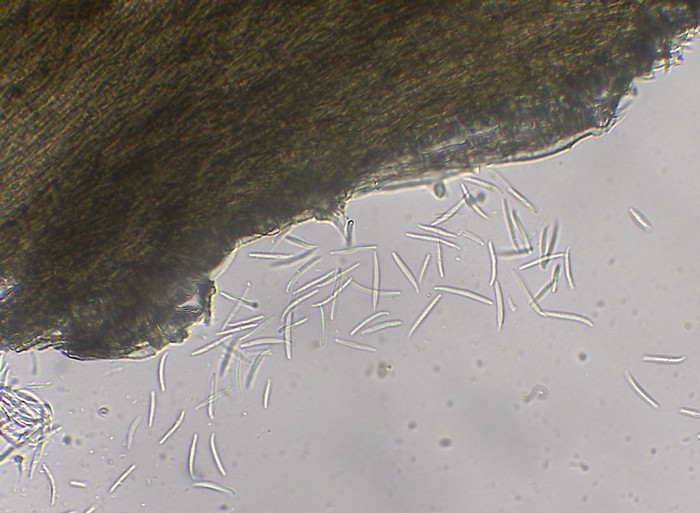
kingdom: Fungi
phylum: Ascomycota
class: Sordariomycetes
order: Xylariales
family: Diatrypaceae
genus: Peroneutypa
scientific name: Peroneutypa scoparia
